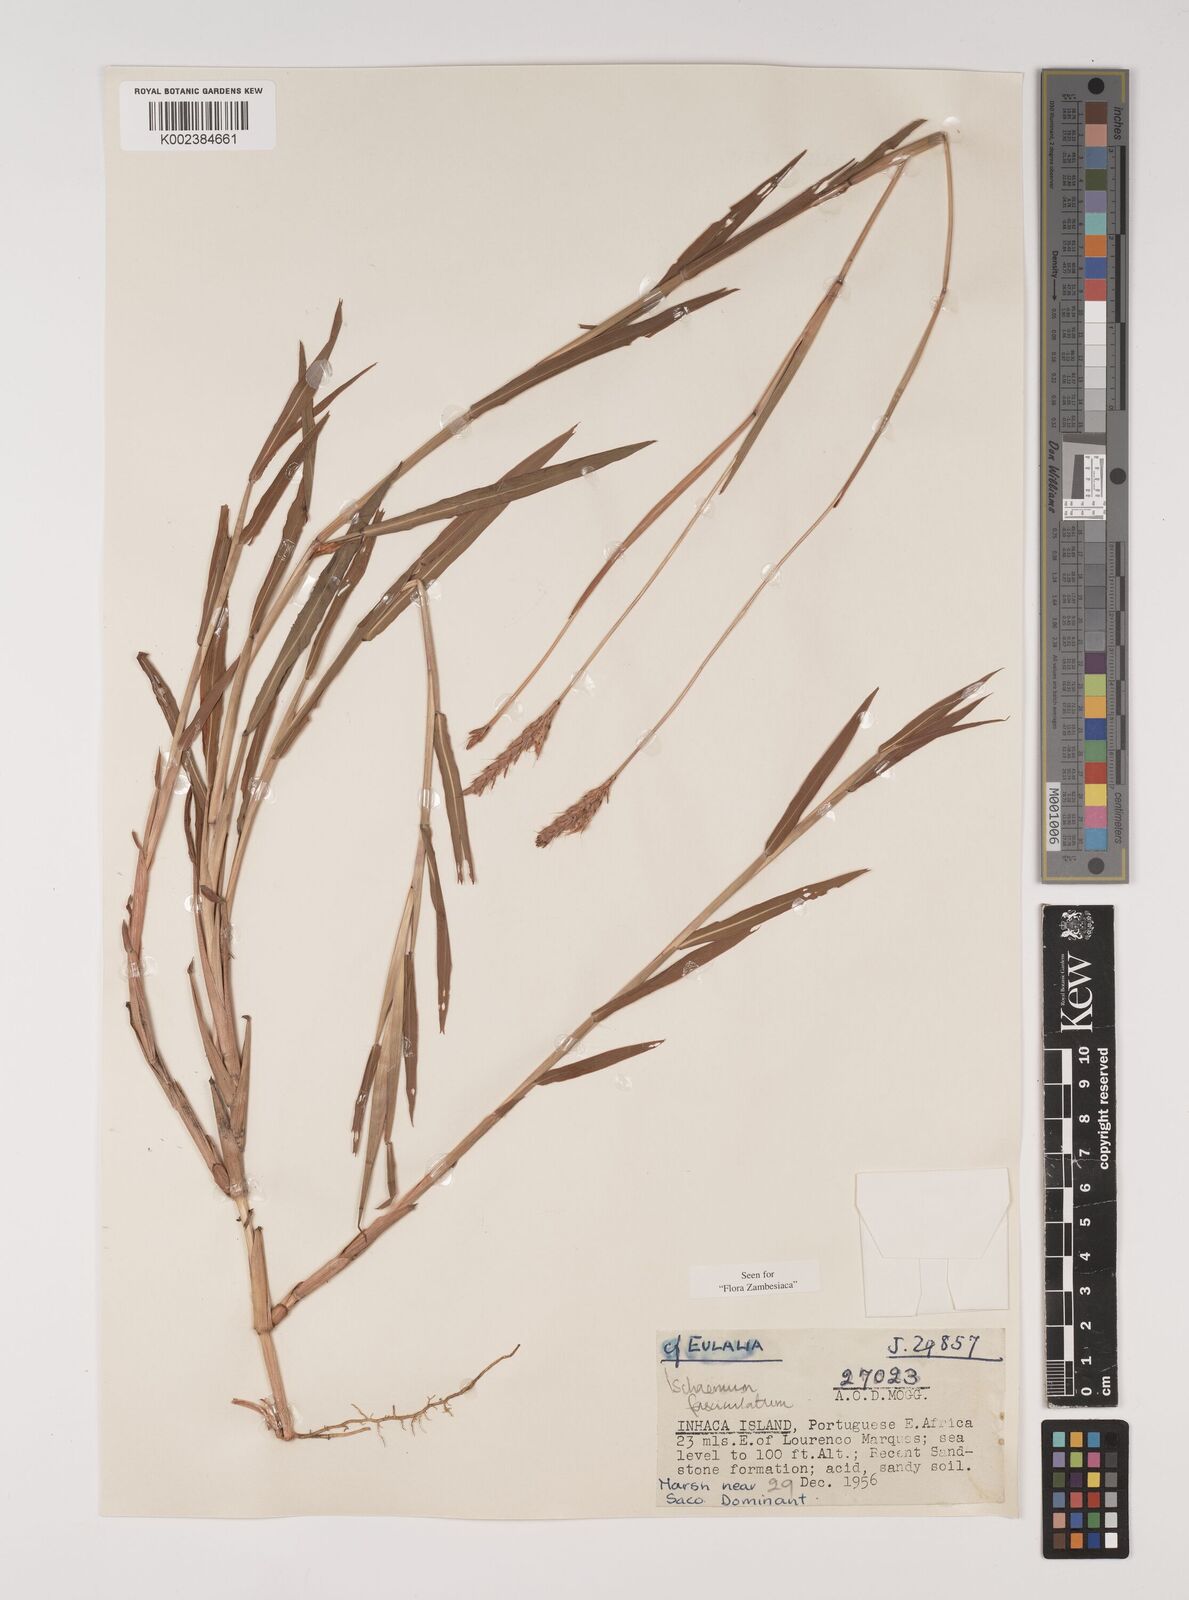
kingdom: Plantae
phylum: Tracheophyta
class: Liliopsida
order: Poales
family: Poaceae
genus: Ischaemum
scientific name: Ischaemum
